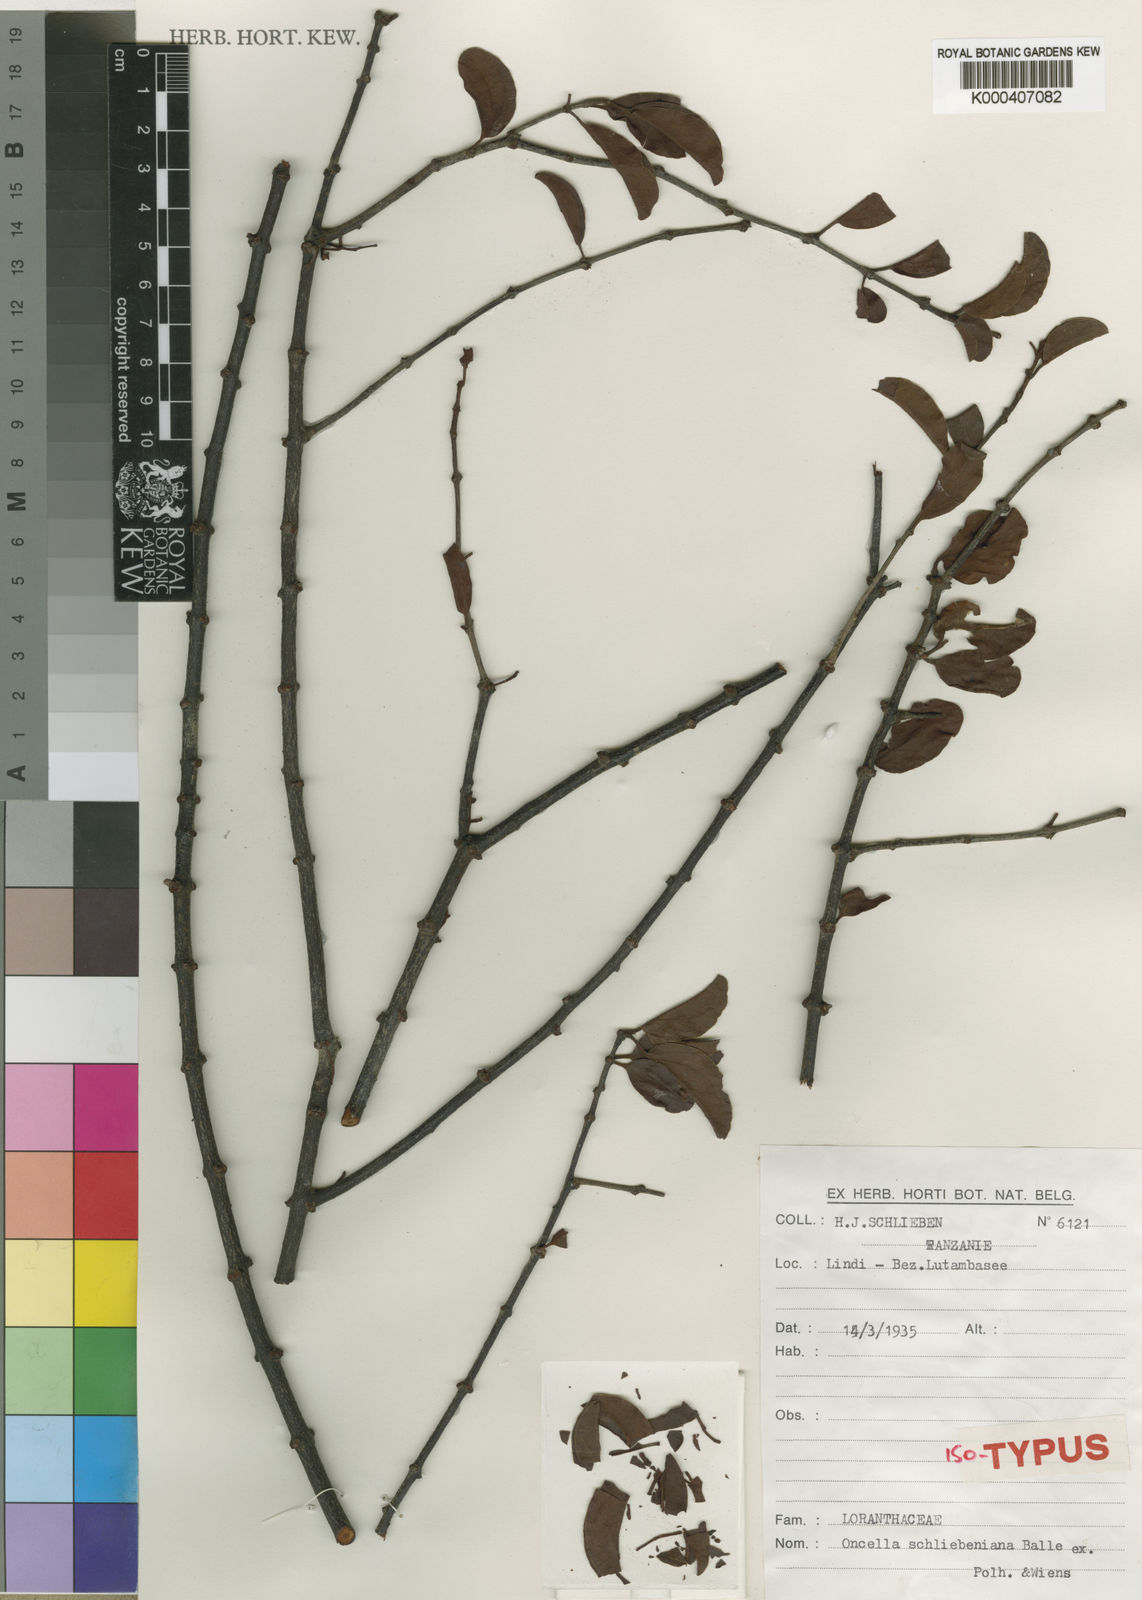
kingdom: Plantae
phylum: Tracheophyta
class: Magnoliopsida
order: Santalales
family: Loranthaceae
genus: Oncella
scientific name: Oncella schliebeniana
